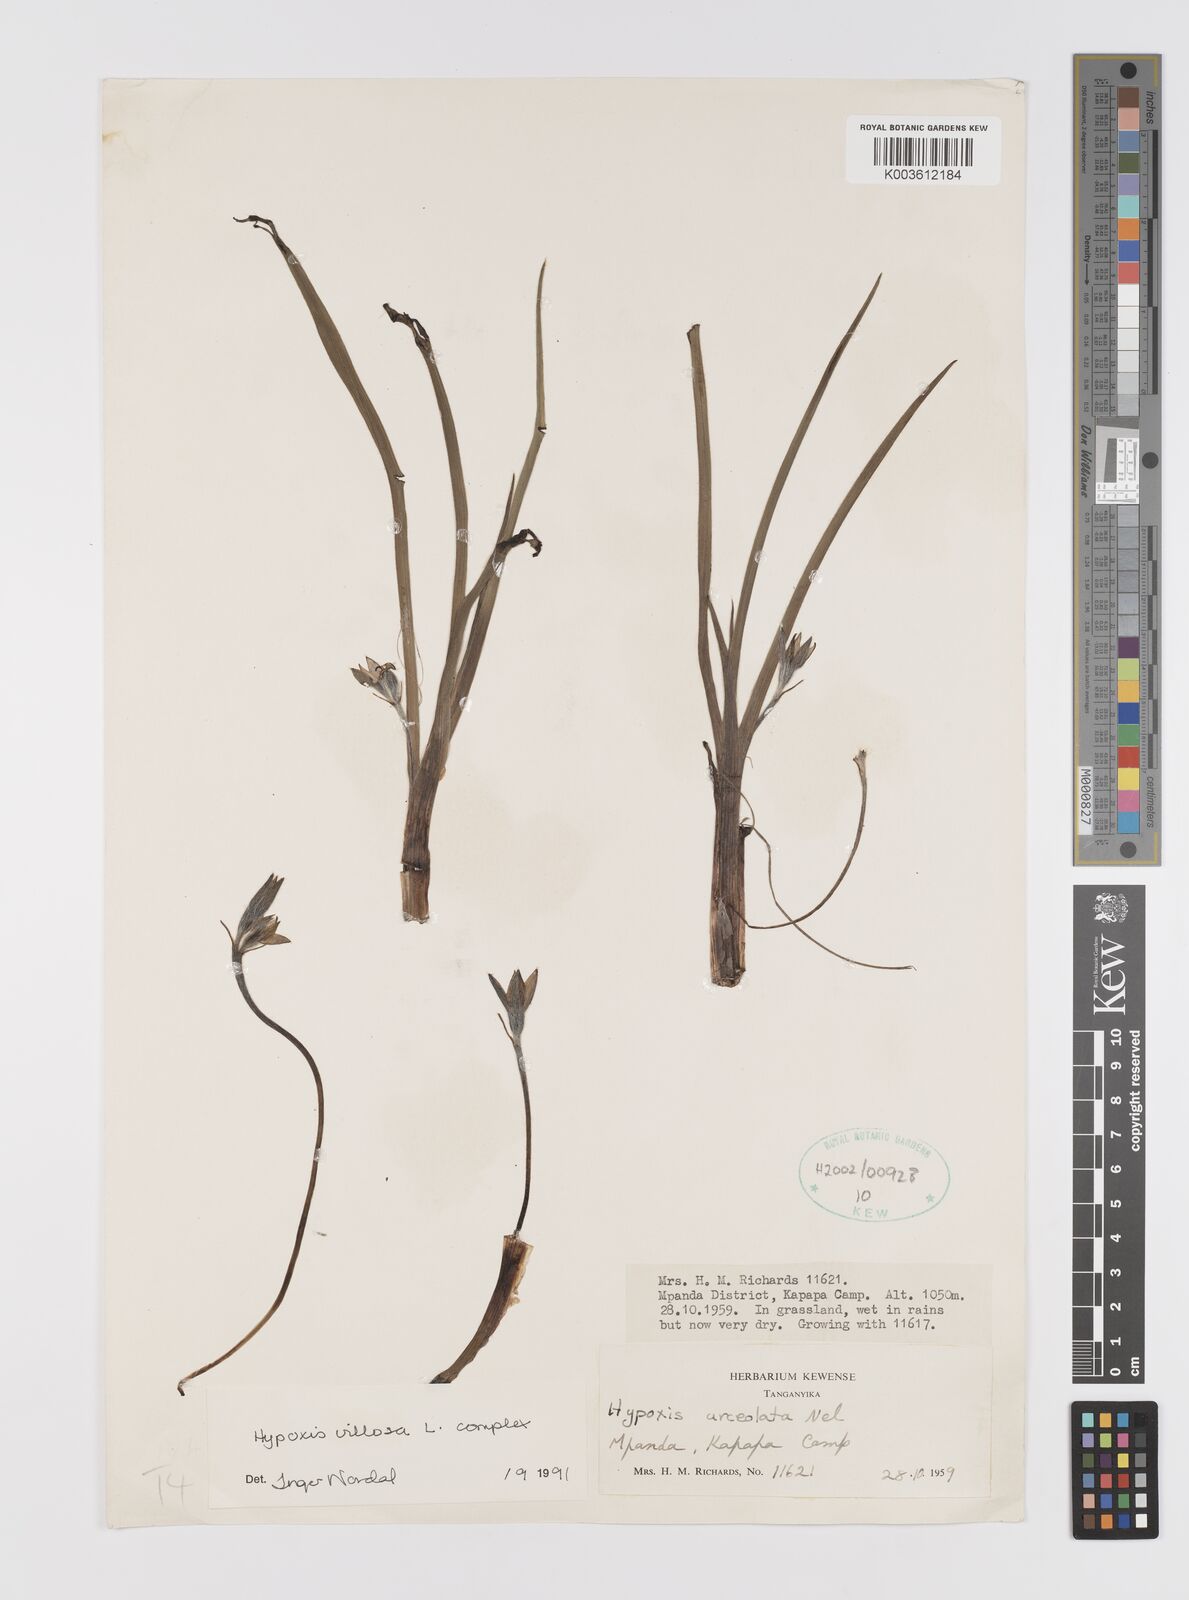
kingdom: Plantae
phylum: Tracheophyta
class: Liliopsida
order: Asparagales
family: Hypoxidaceae
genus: Hypoxis
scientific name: Hypoxis schimperi
